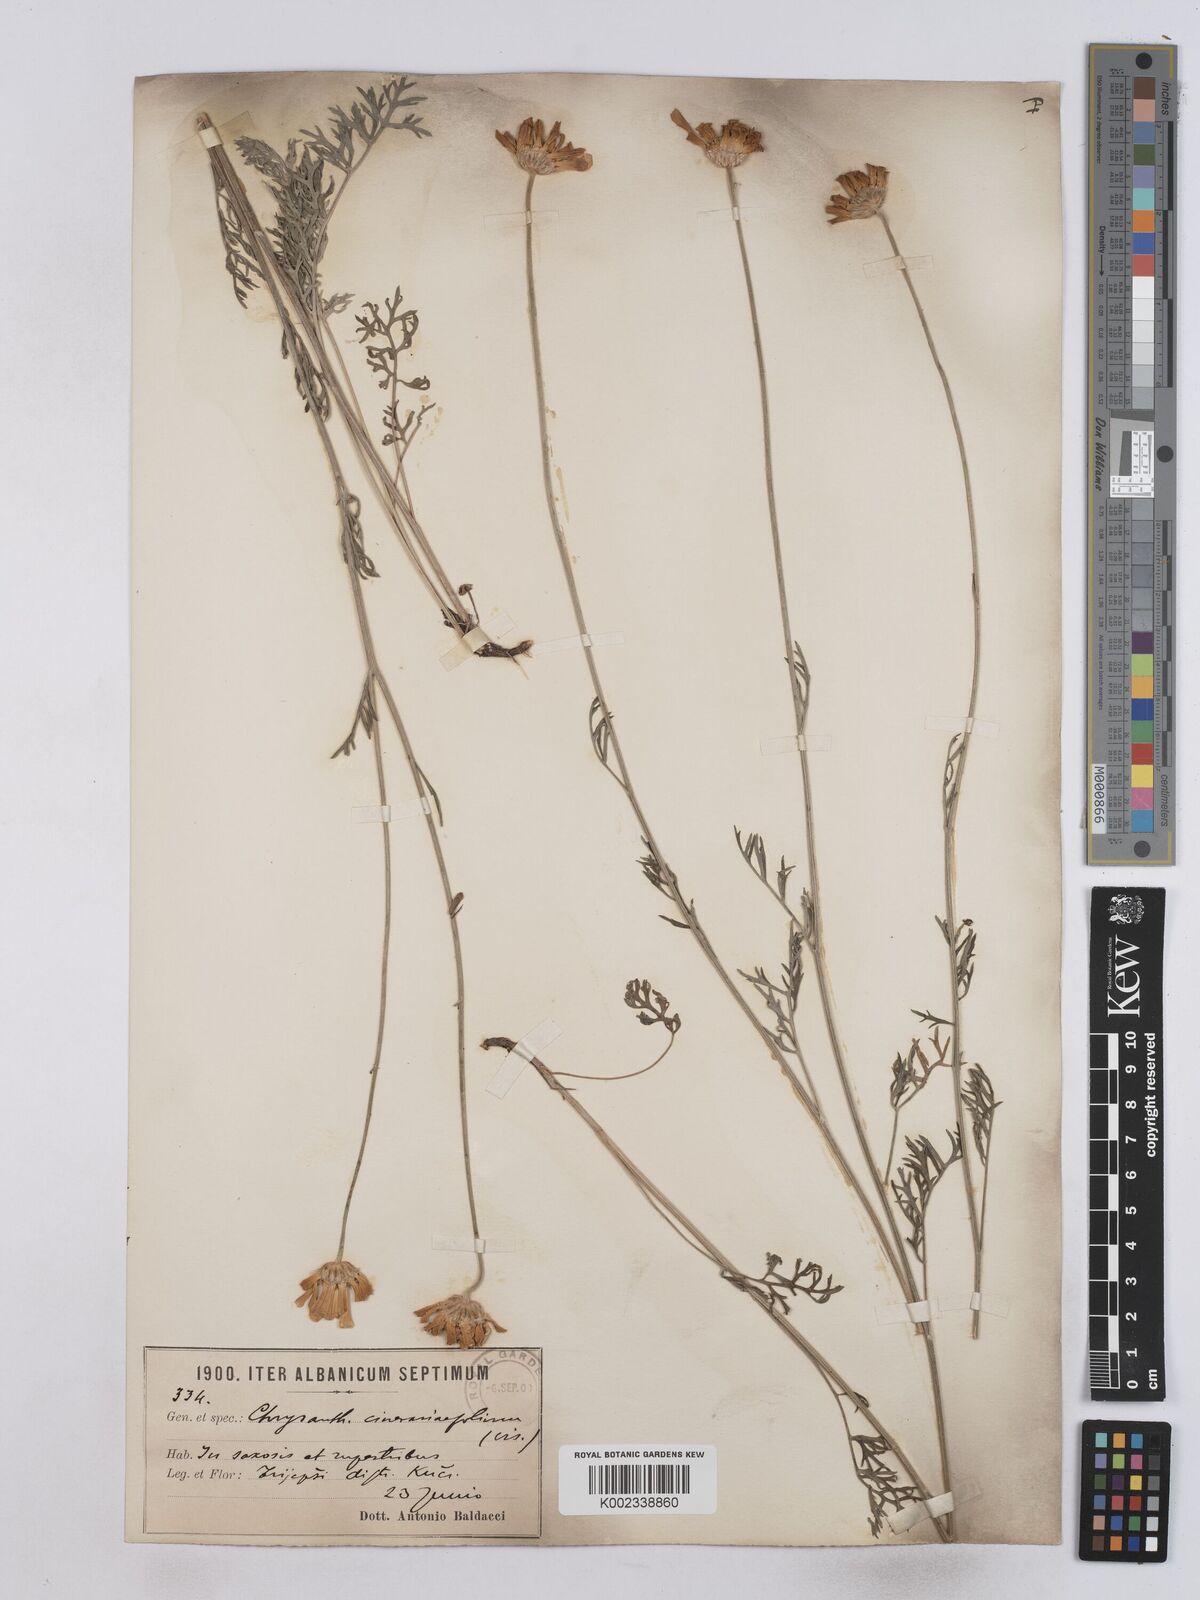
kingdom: Plantae
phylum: Tracheophyta
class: Magnoliopsida
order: Asterales
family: Asteraceae
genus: Tanacetum
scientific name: Tanacetum cinerariifolium
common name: Dalmatian pyrethrum
